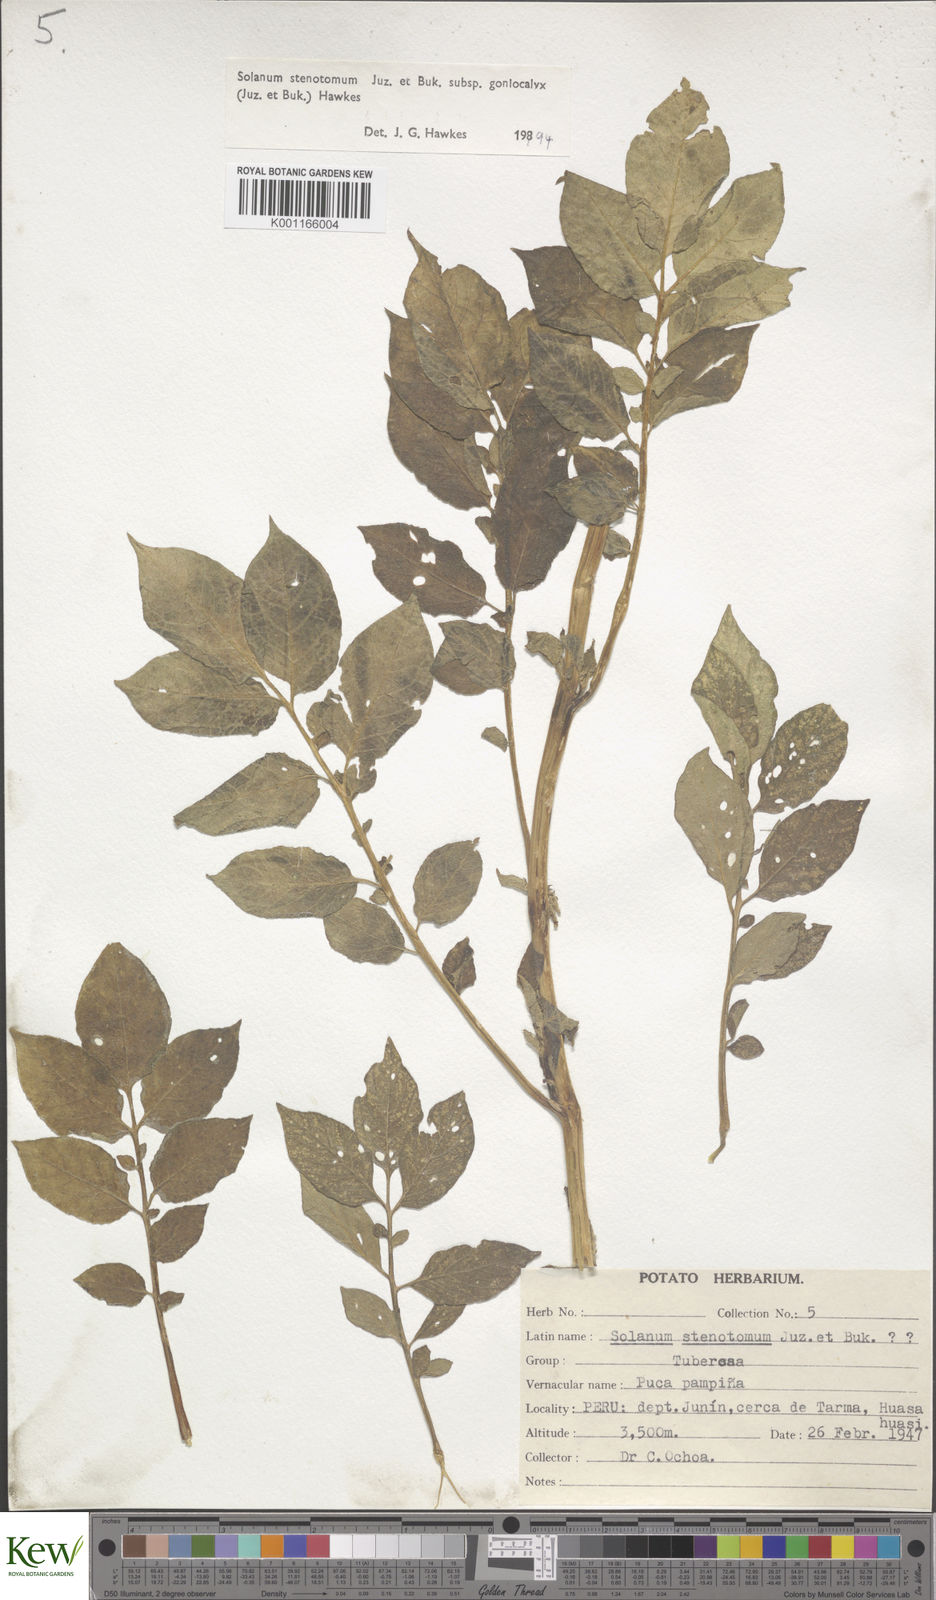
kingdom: Plantae
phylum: Tracheophyta
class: Magnoliopsida
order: Solanales
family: Solanaceae
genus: Solanum
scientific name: Solanum tuberosum
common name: Potato
